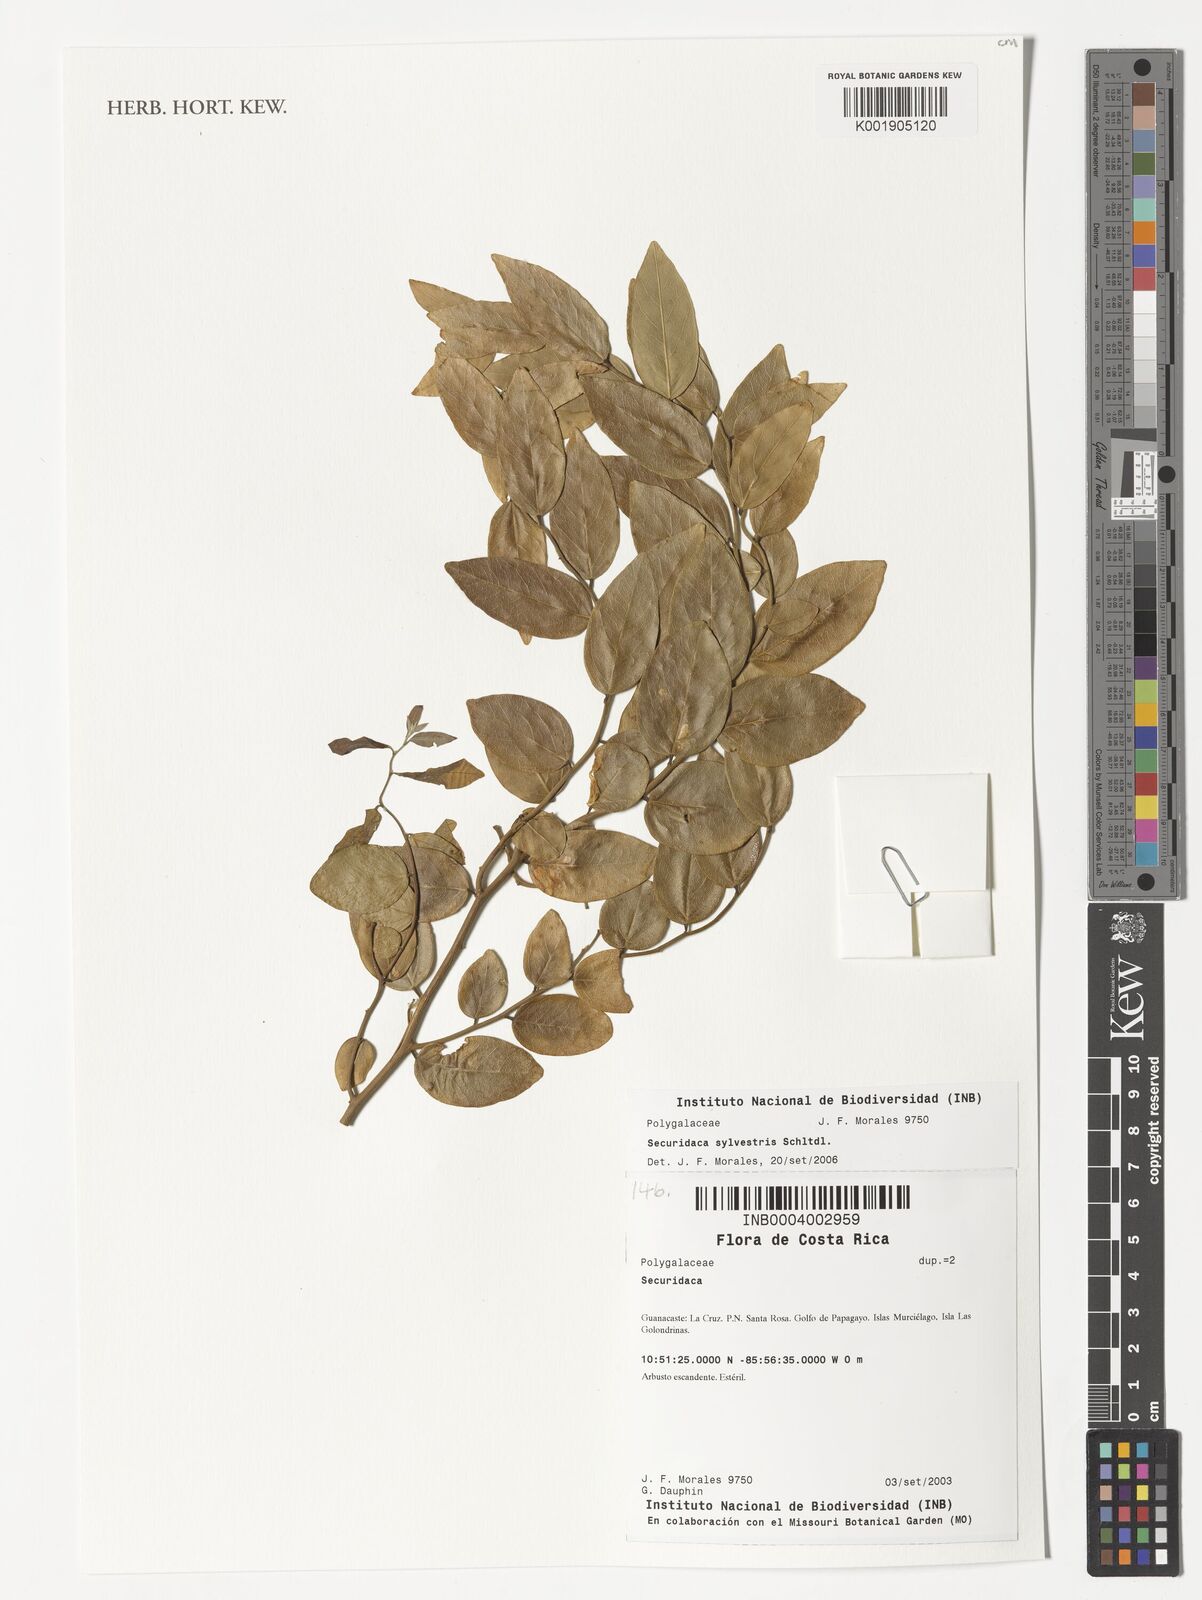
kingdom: Plantae
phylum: Tracheophyta
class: Magnoliopsida
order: Fabales
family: Polygalaceae
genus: Securidaca
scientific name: Securidaca sylvestris
